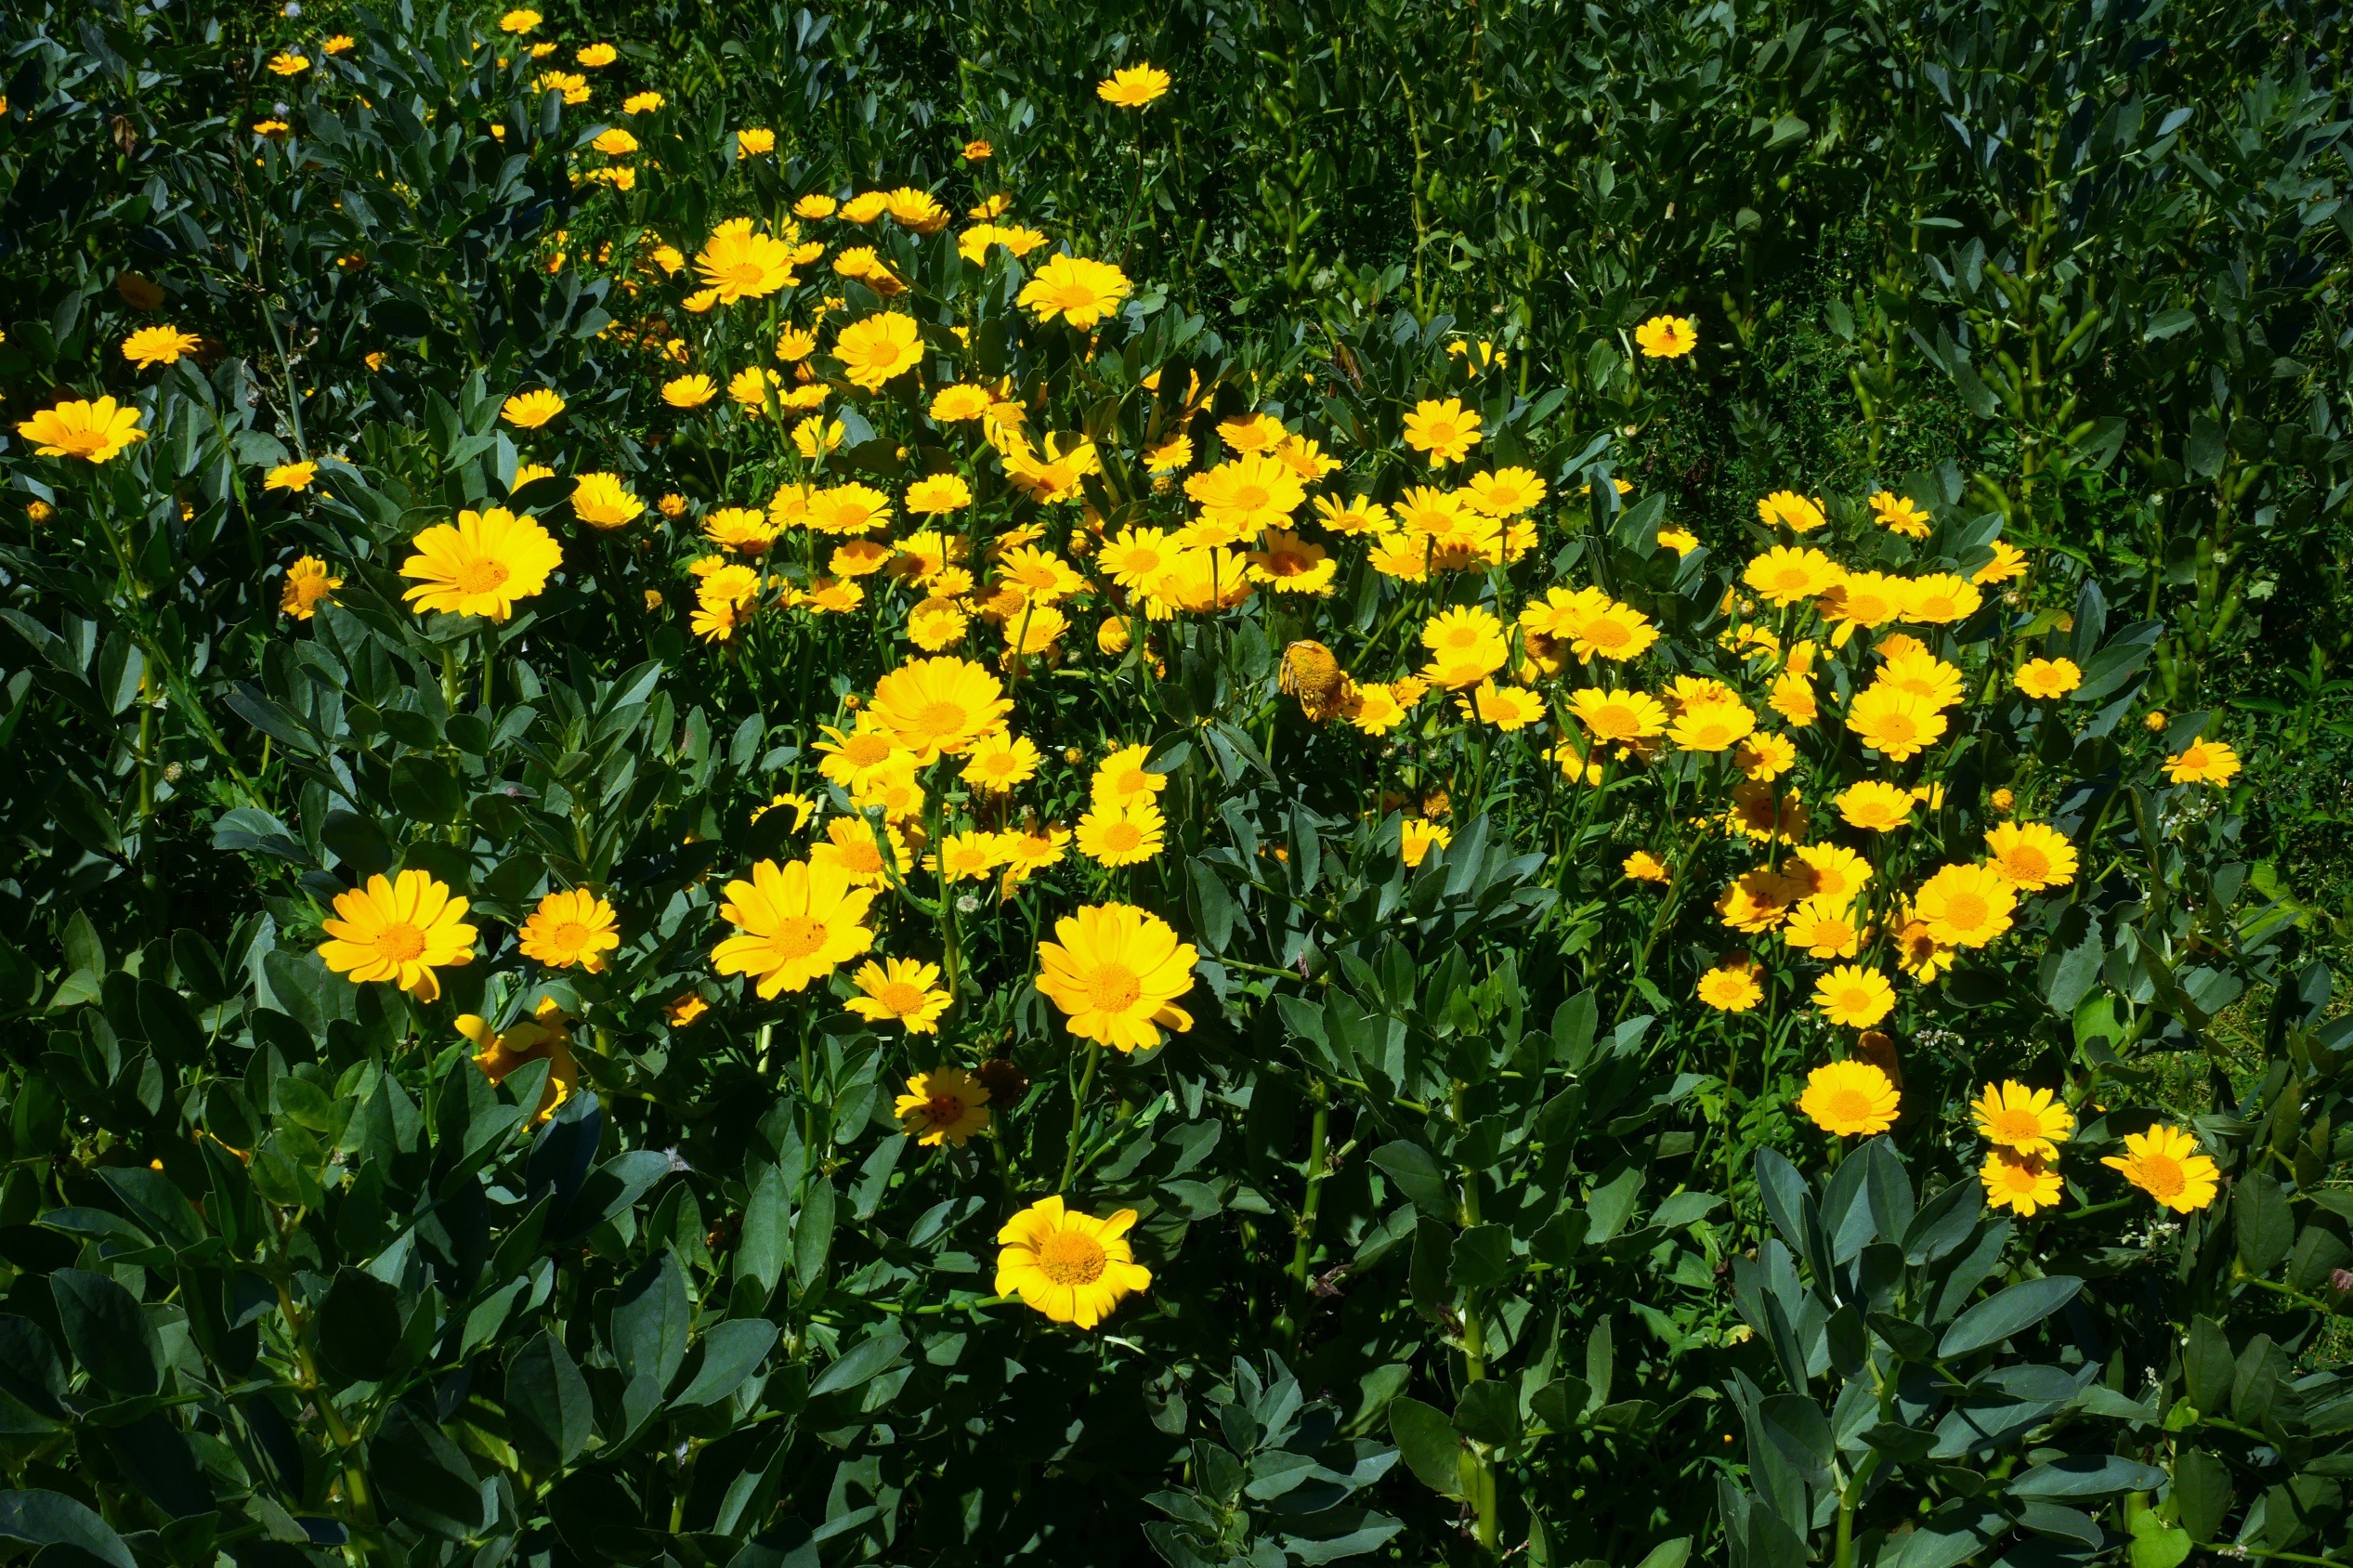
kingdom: Plantae
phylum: Tracheophyta
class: Magnoliopsida
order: Asterales
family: Asteraceae
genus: Glebionis
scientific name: Glebionis segetum
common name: Gul okseøje
